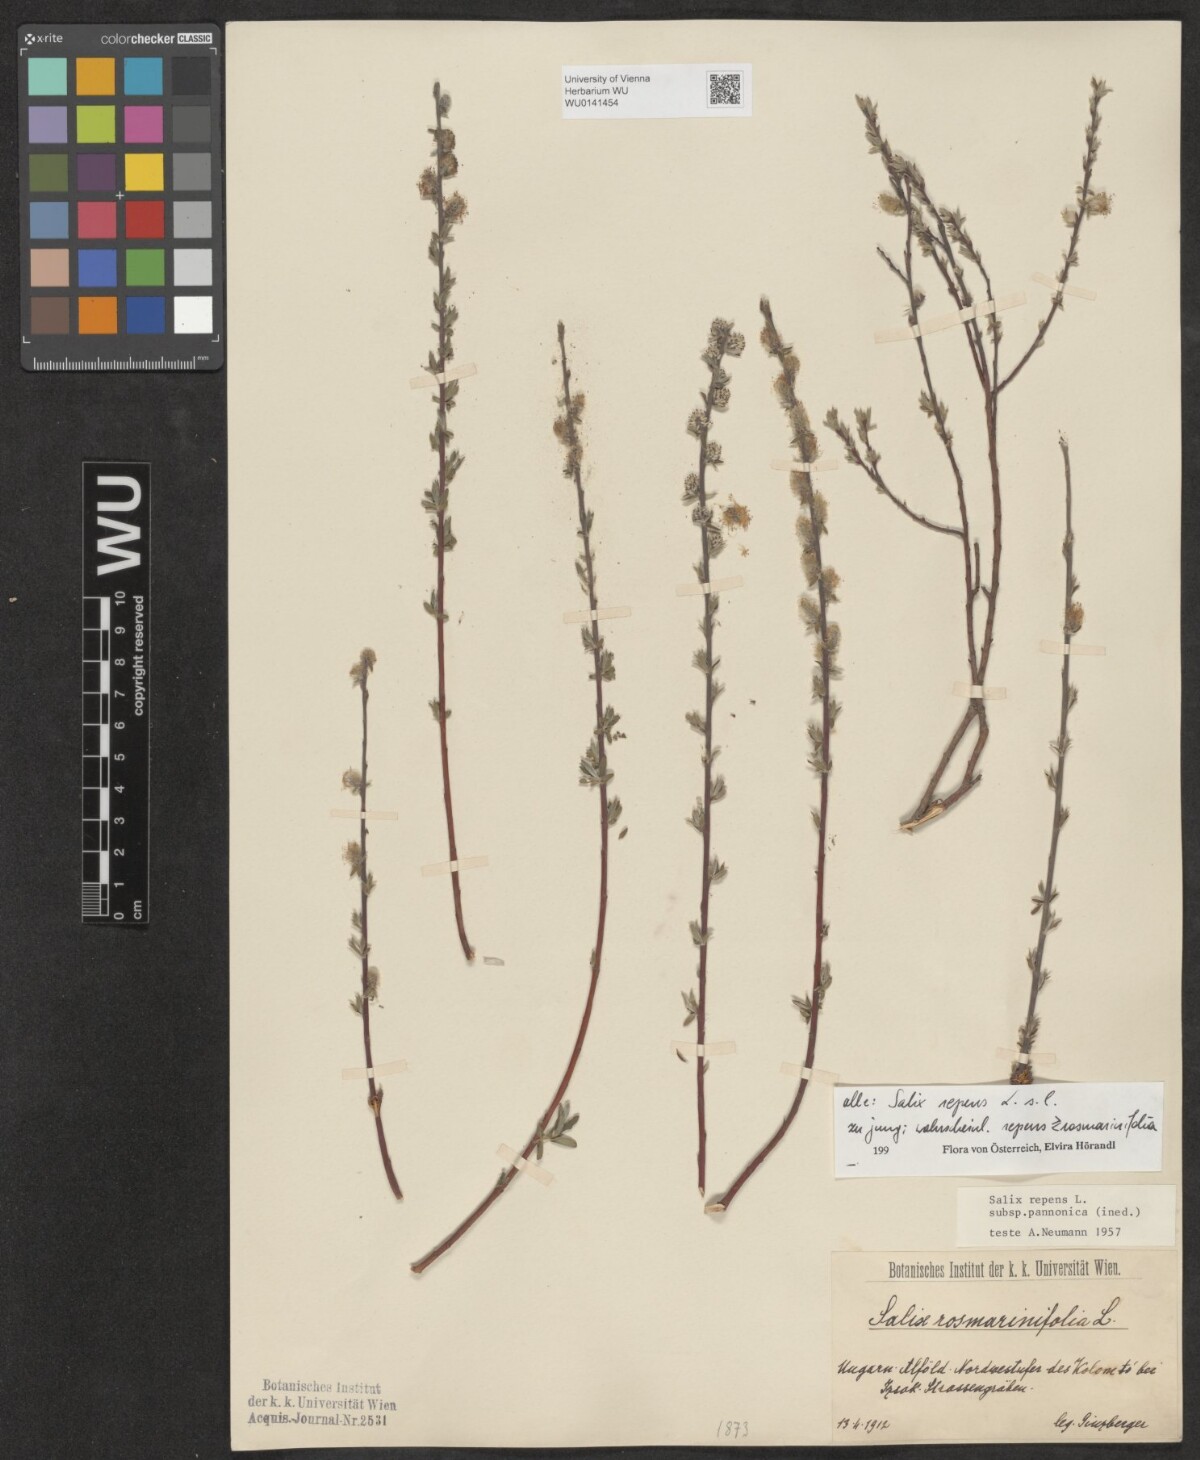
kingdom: Plantae
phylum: Tracheophyta
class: Magnoliopsida
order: Malpighiales
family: Salicaceae
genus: Salix
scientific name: Salix repens
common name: Creeping willow
